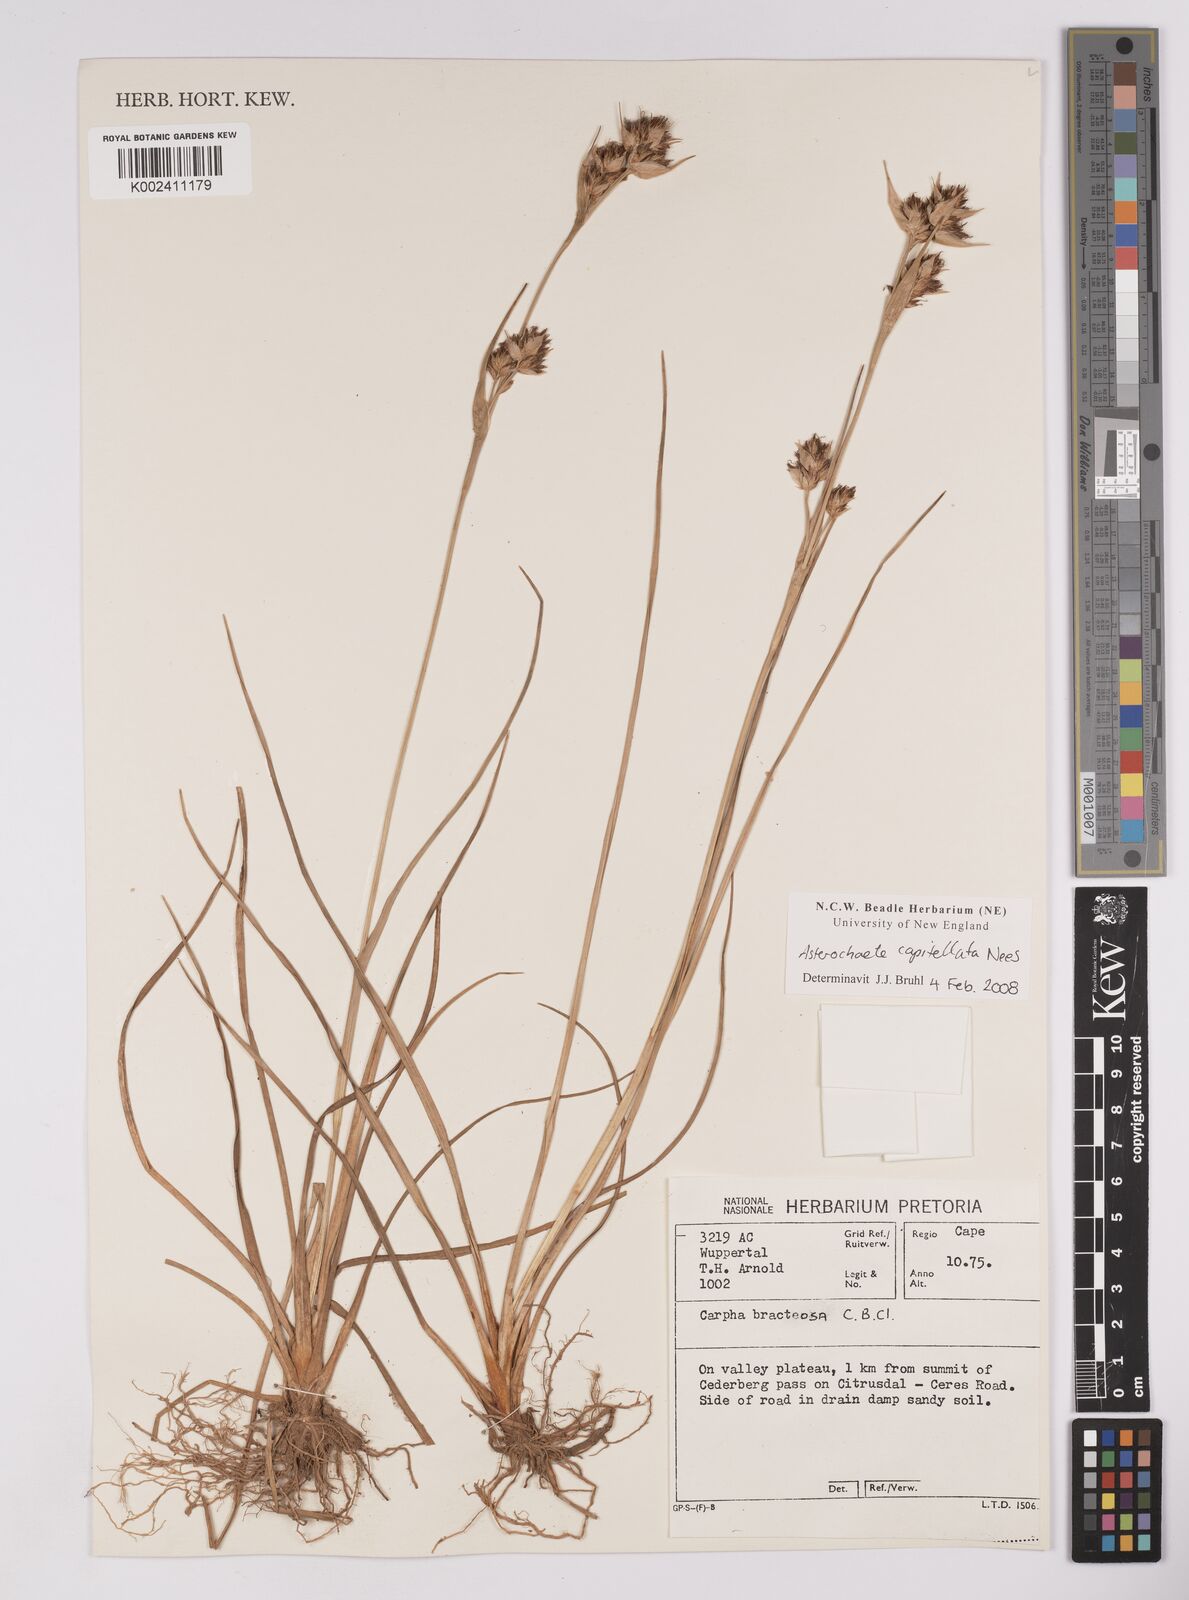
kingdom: Plantae
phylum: Tracheophyta
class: Liliopsida
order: Poales
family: Cyperaceae
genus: Carpha
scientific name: Carpha capitellata
